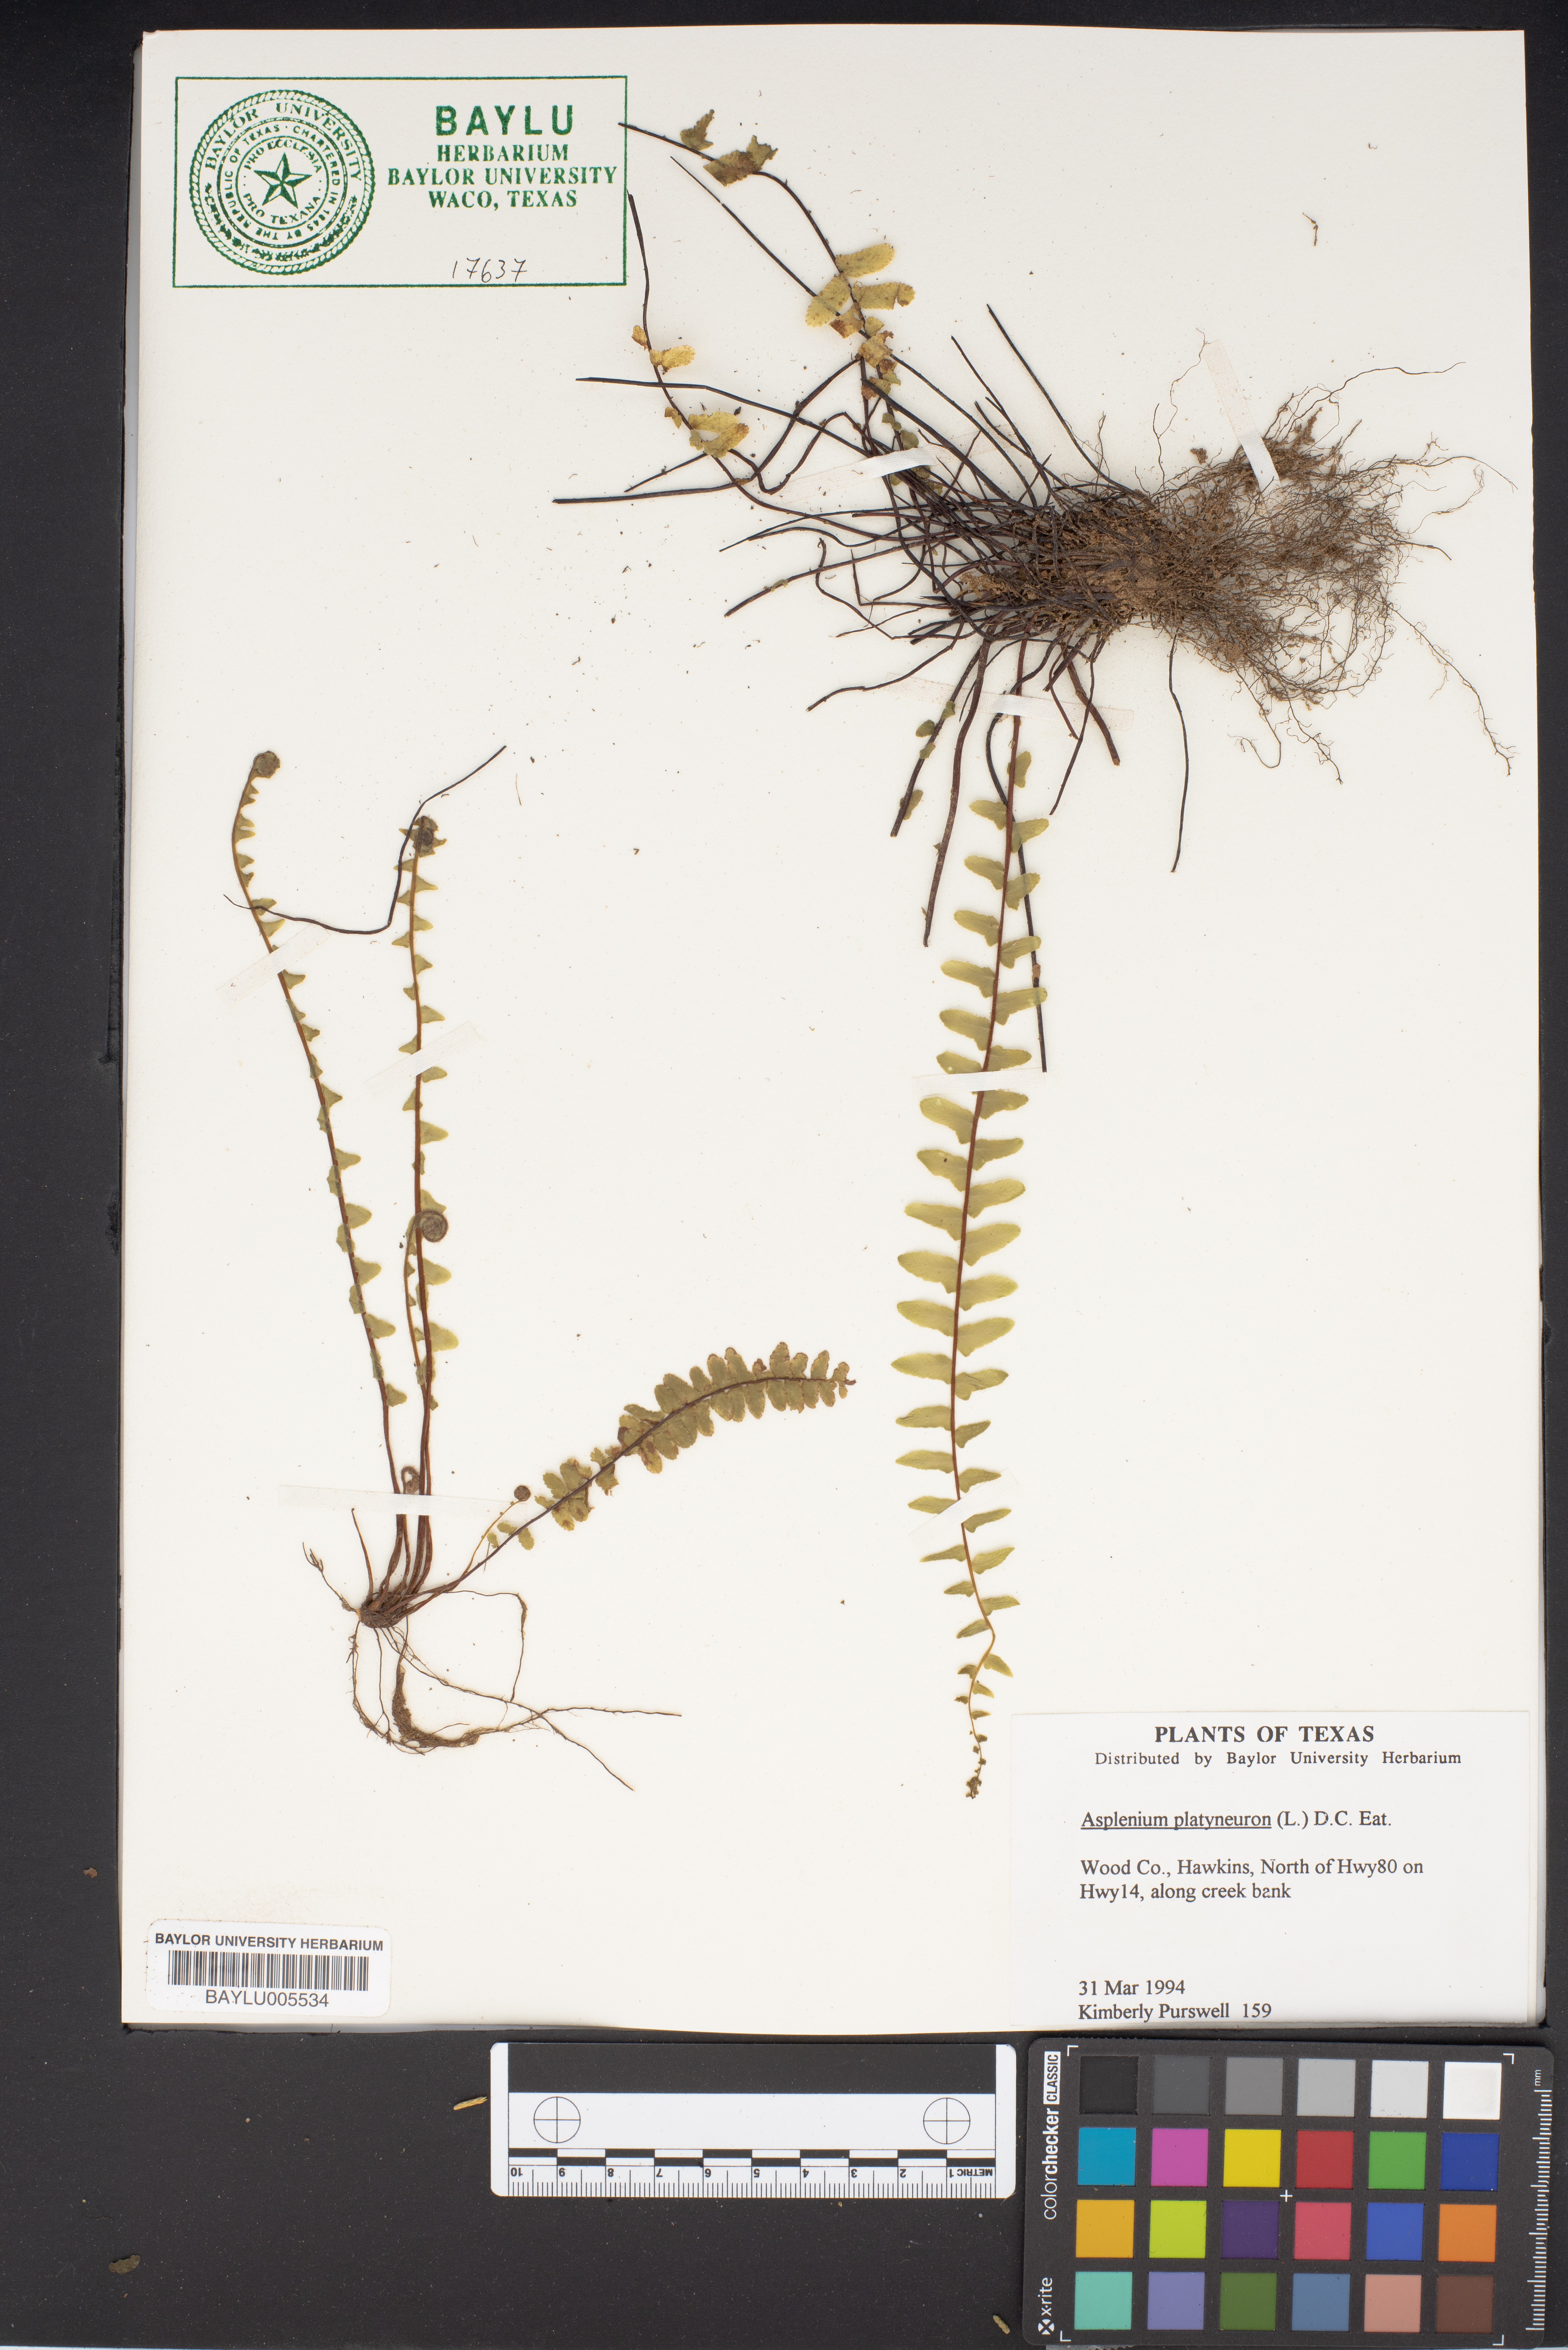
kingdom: Plantae
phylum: Tracheophyta
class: Polypodiopsida
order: Polypodiales
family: Aspleniaceae
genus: Asplenium
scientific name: Asplenium platyneuron
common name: Ebony spleenwort
